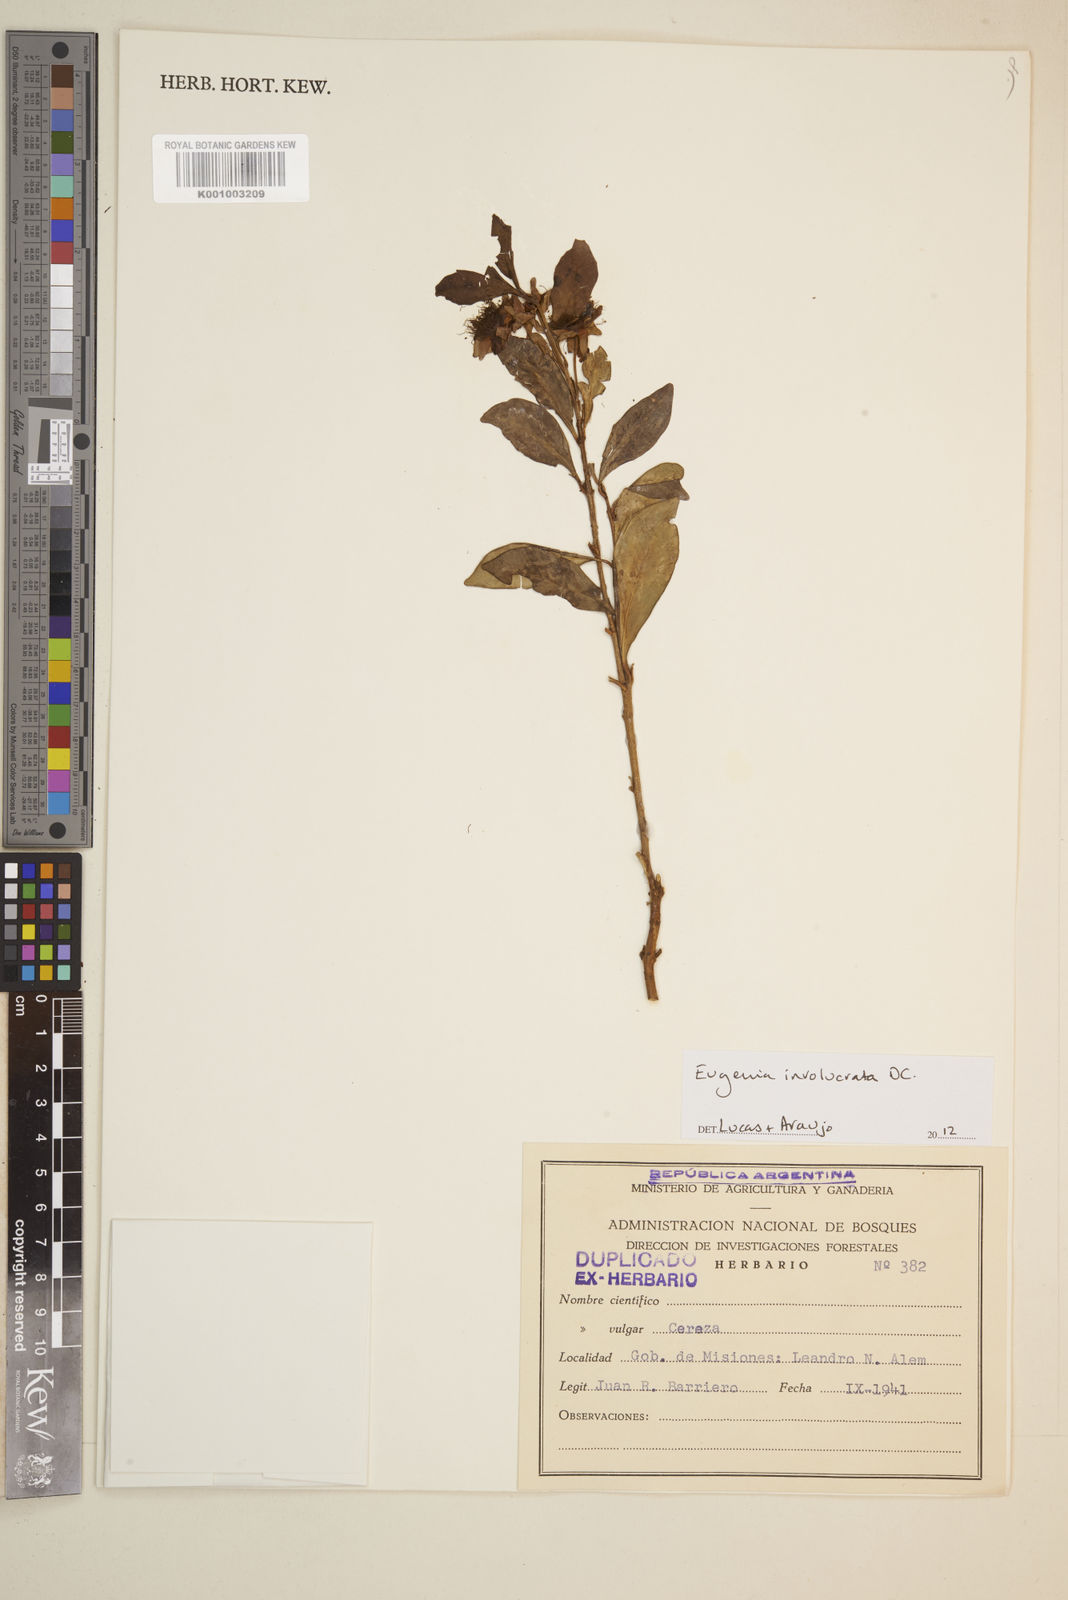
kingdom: Plantae
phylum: Tracheophyta
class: Magnoliopsida
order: Myrtales
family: Myrtaceae
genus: Eugenia
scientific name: Eugenia involucrata
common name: Cherry-of-the-rio grande
